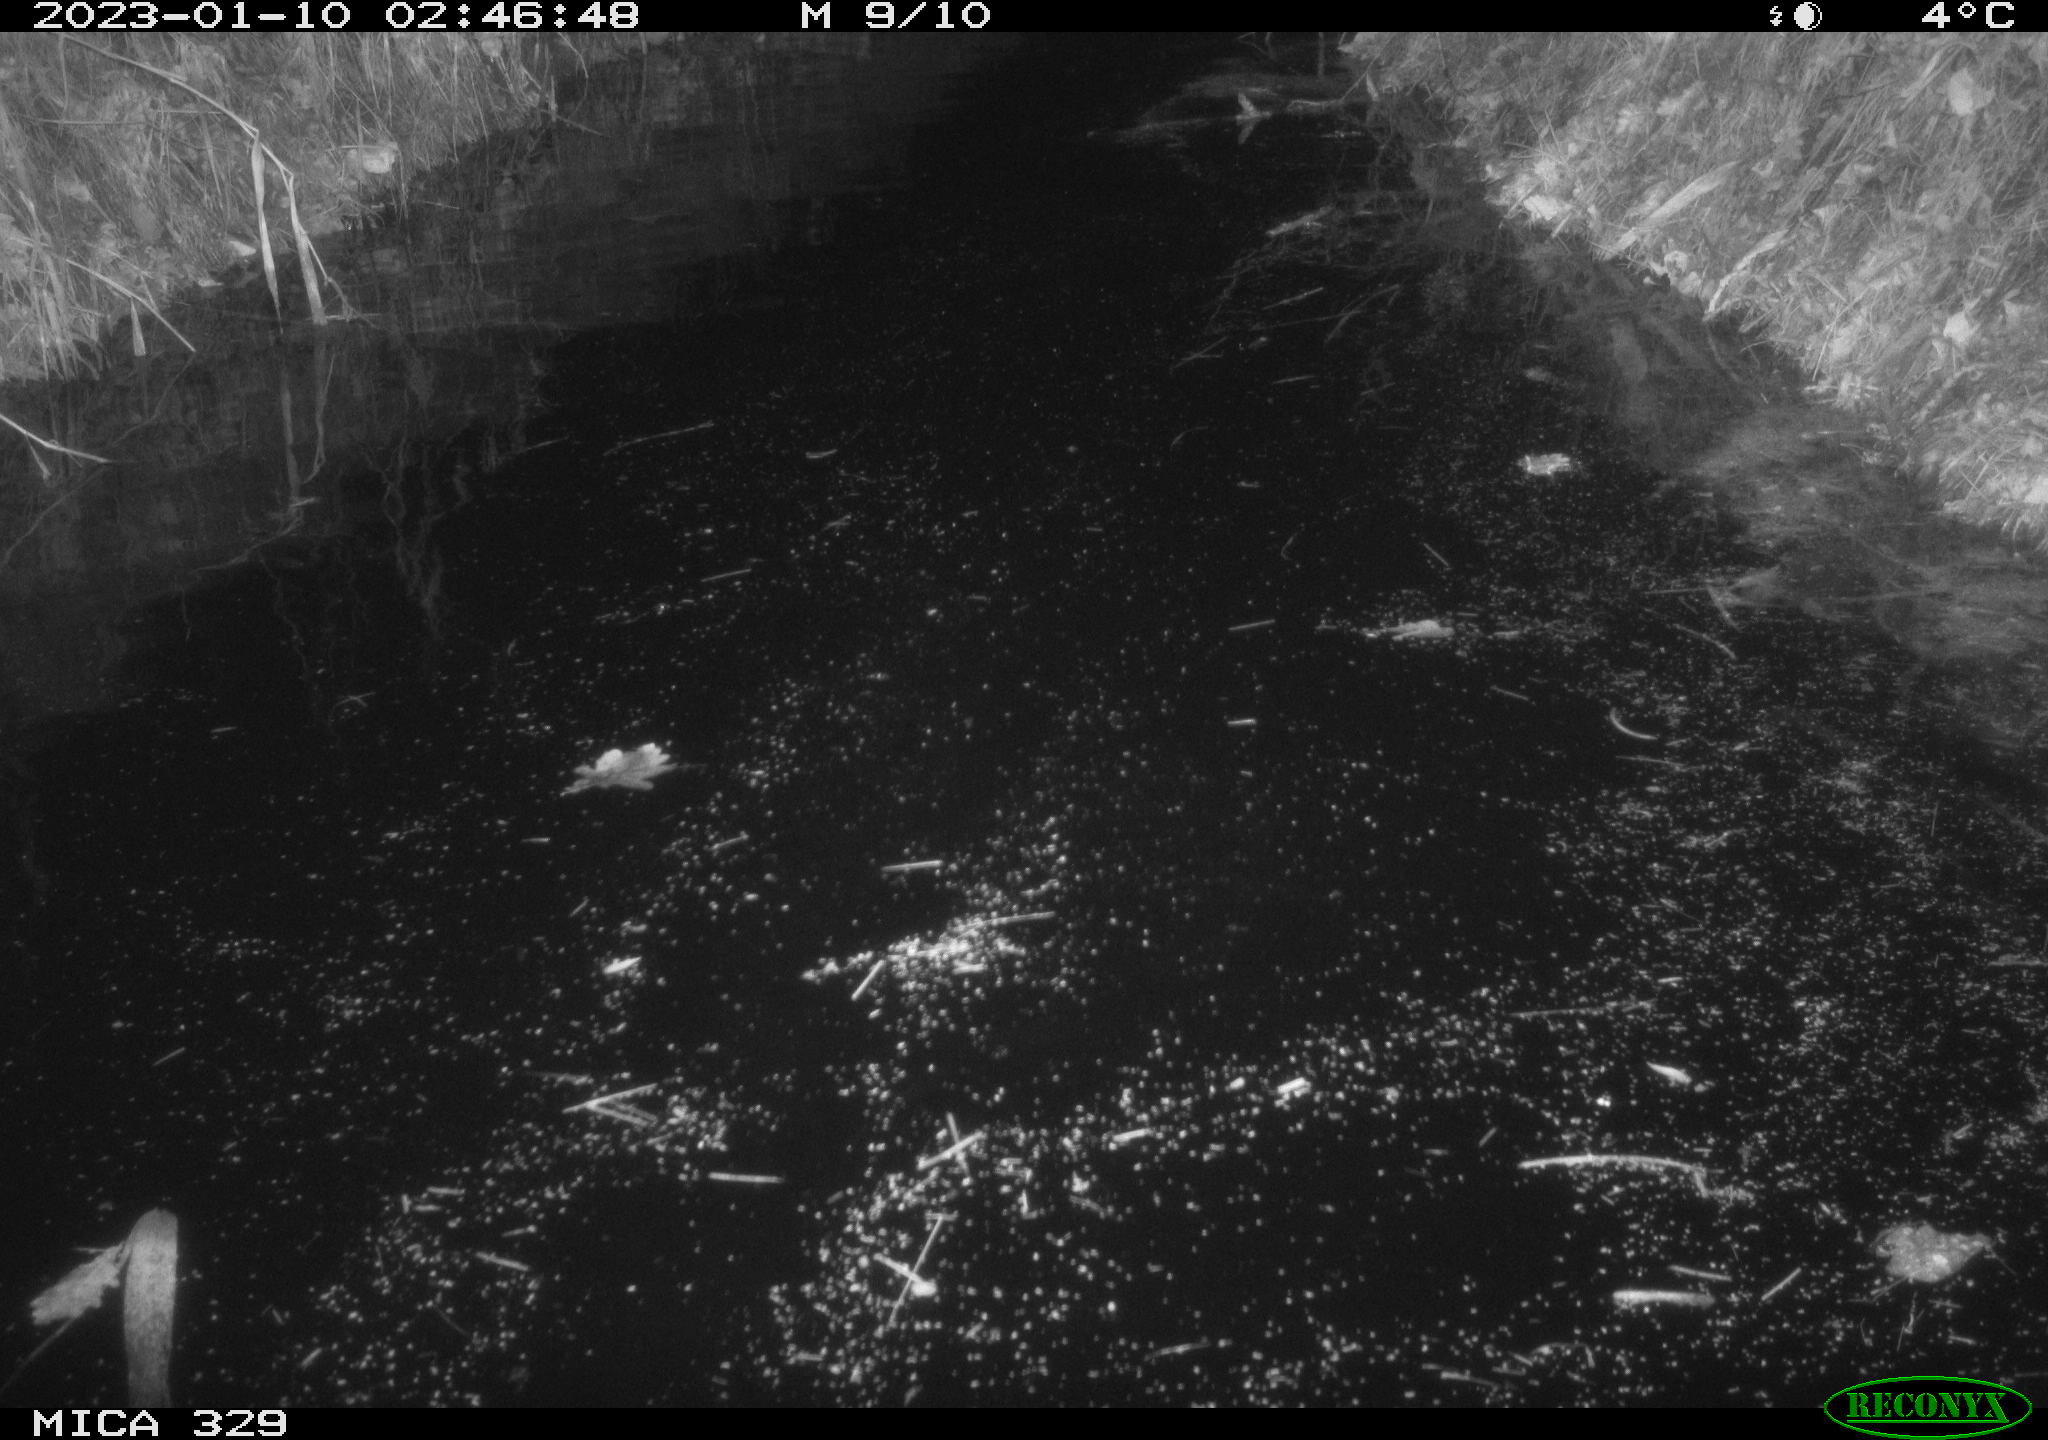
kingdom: Animalia
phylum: Chordata
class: Mammalia
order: Rodentia
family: Cricetidae
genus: Ondatra
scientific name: Ondatra zibethicus
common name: Muskrat
